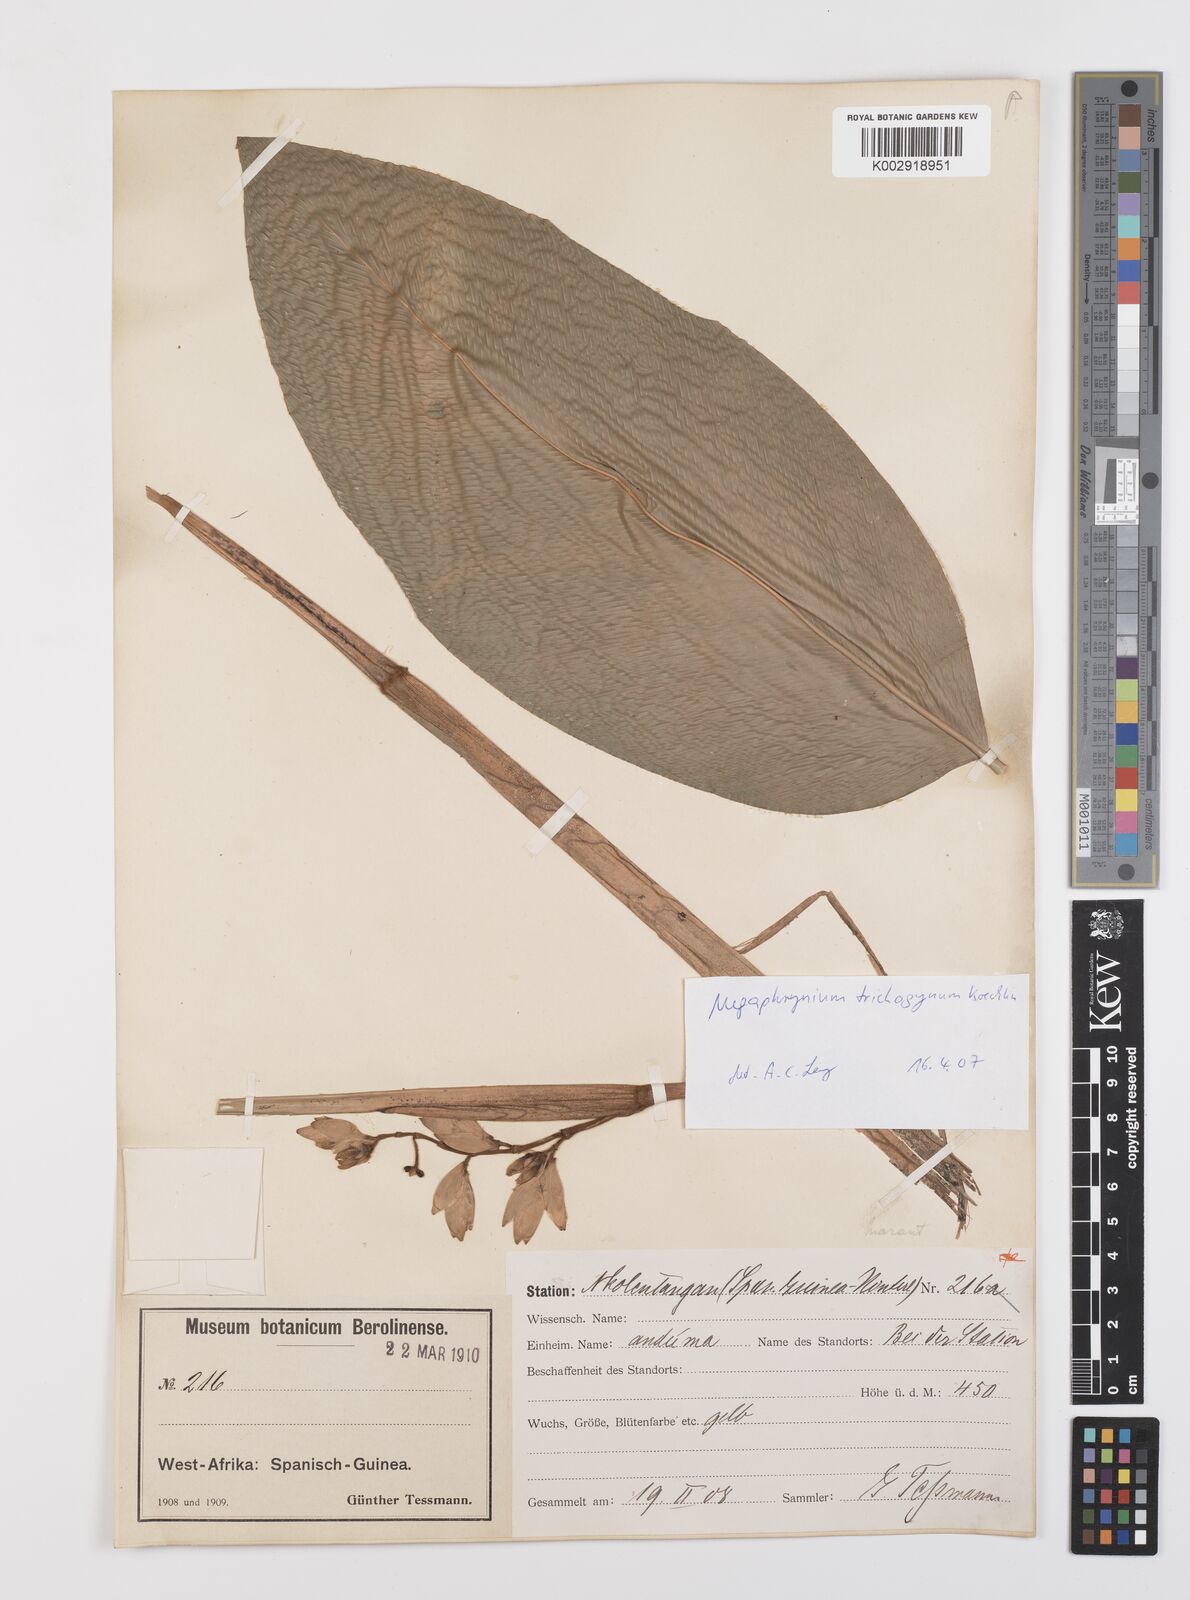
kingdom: Plantae
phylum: Tracheophyta
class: Liliopsida
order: Zingiberales
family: Marantaceae
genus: Megaphrynium
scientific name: Megaphrynium trichogynum
